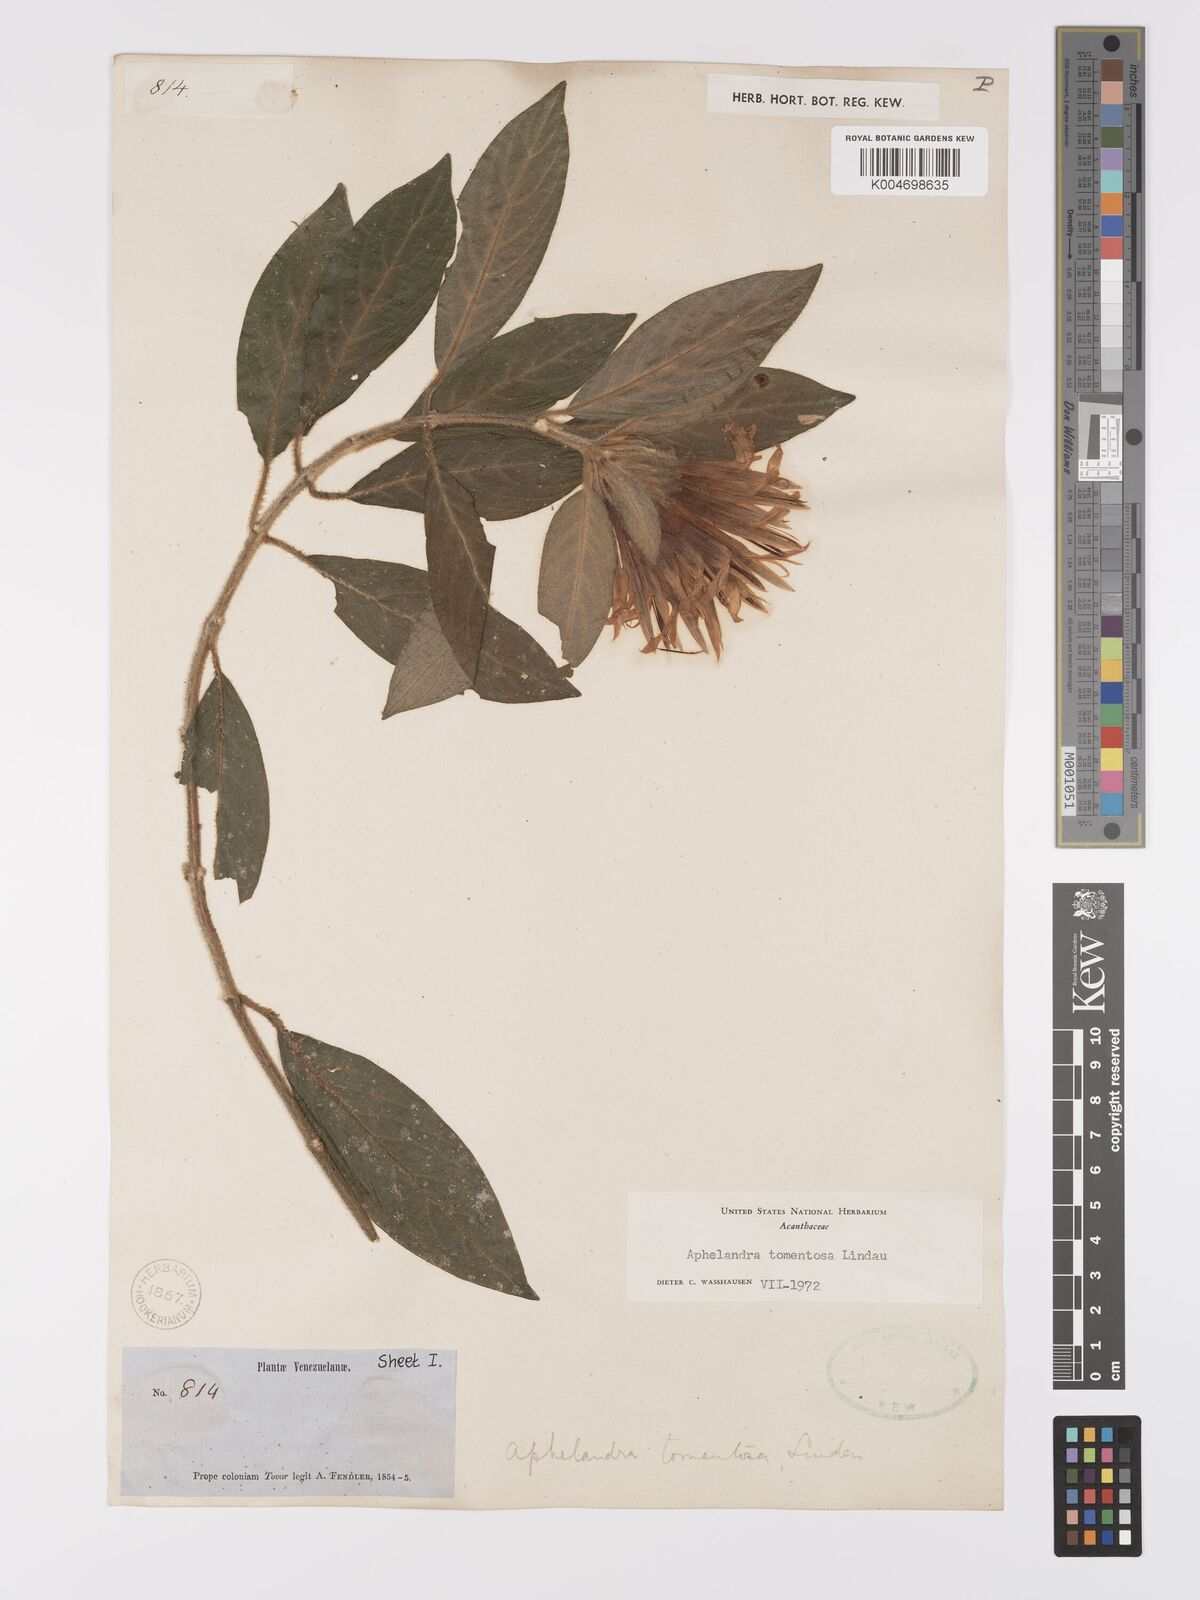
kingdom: Plantae
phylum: Tracheophyta
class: Magnoliopsida
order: Lamiales
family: Acanthaceae
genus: Aphelandra
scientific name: Aphelandra tomentosa
